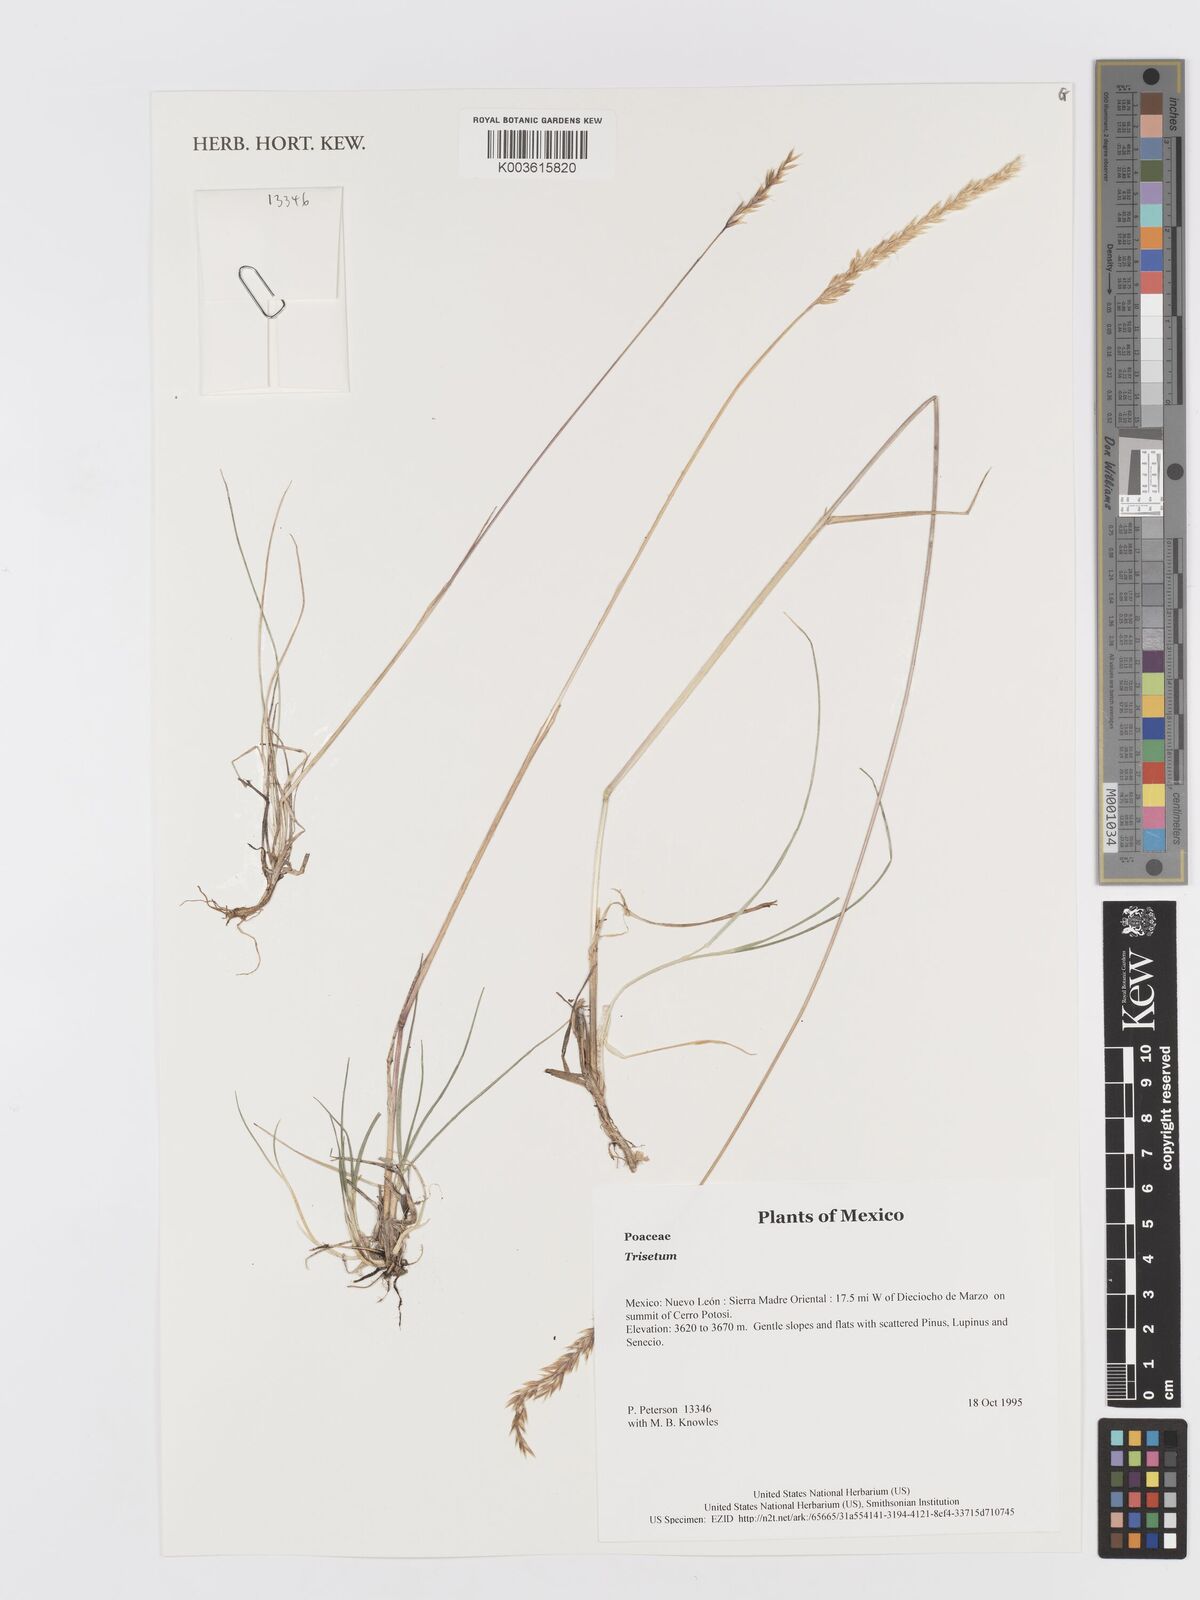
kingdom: Plantae
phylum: Tracheophyta
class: Liliopsida
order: Poales
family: Poaceae
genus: Trisetum
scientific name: Trisetum
